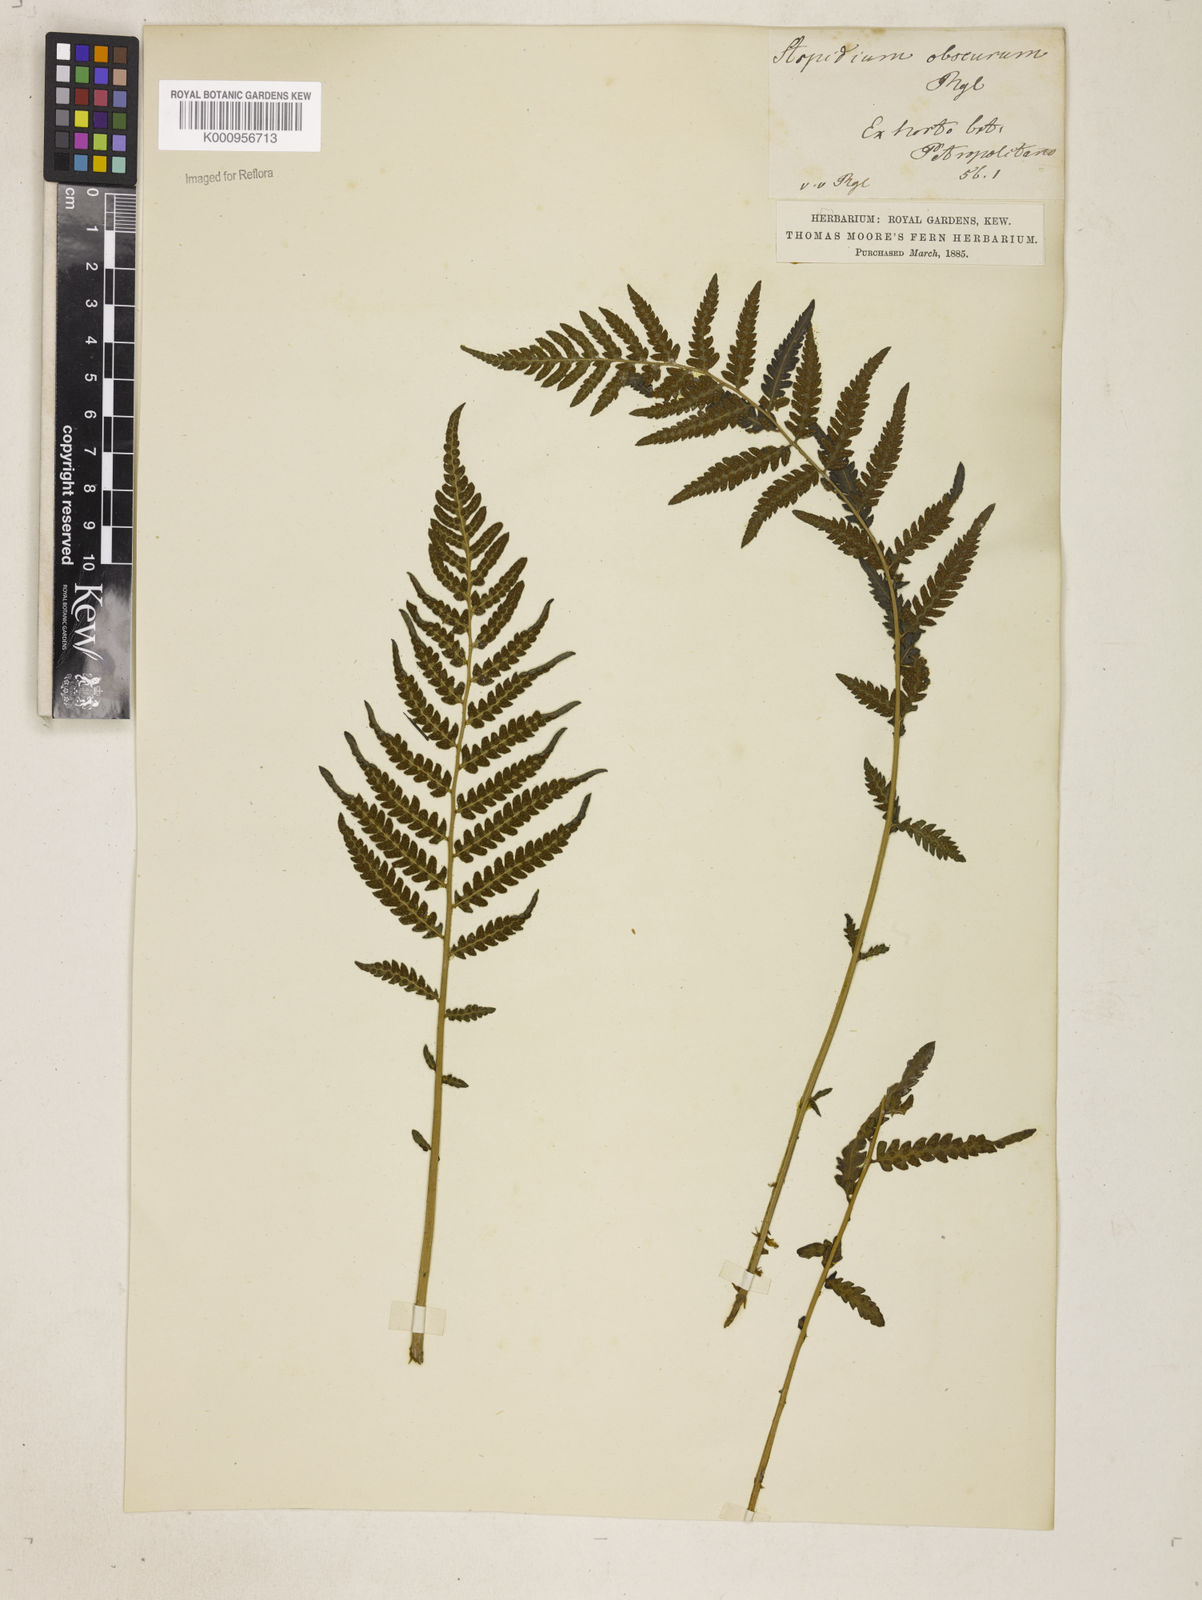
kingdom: Plantae
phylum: Tracheophyta
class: Polypodiopsida
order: Polypodiales
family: Thelypteridaceae
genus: Amauropelta
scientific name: Amauropelta ptarmica
